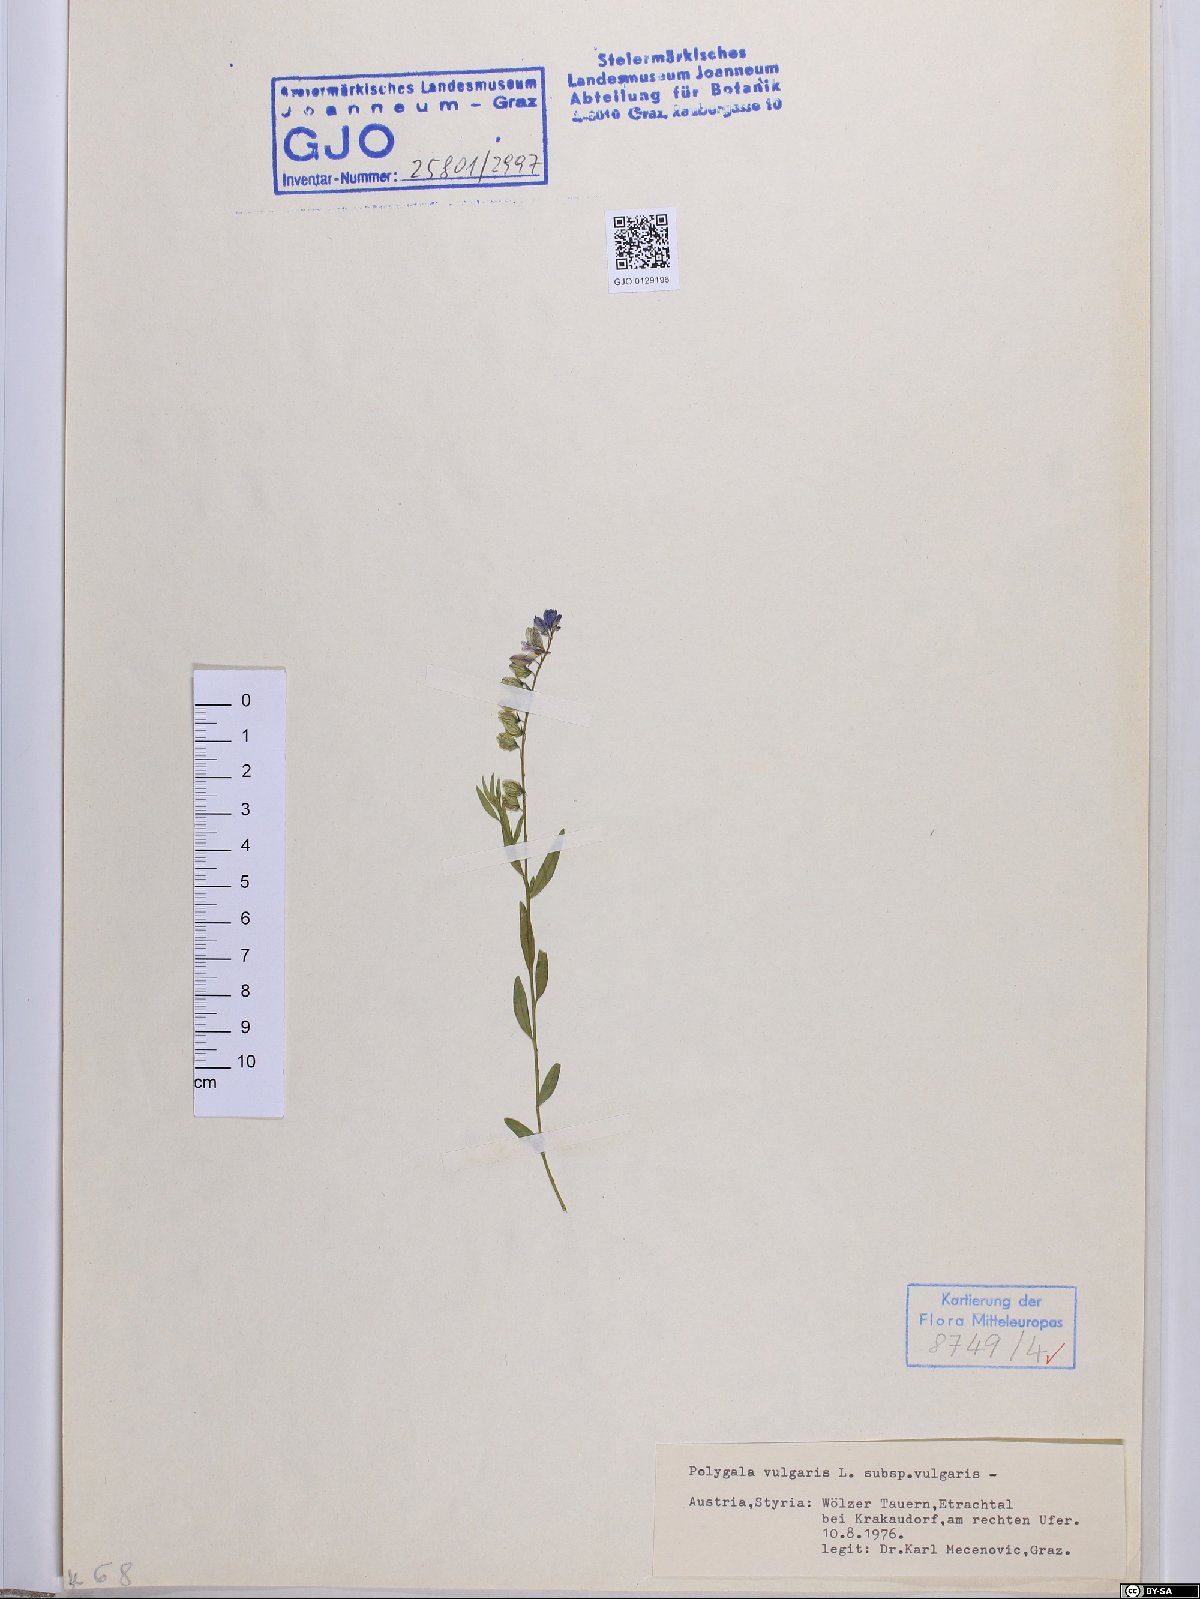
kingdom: Plantae
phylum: Tracheophyta
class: Magnoliopsida
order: Fabales
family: Polygalaceae
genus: Polygala
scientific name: Polygala vulgaris
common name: Common milkwort
